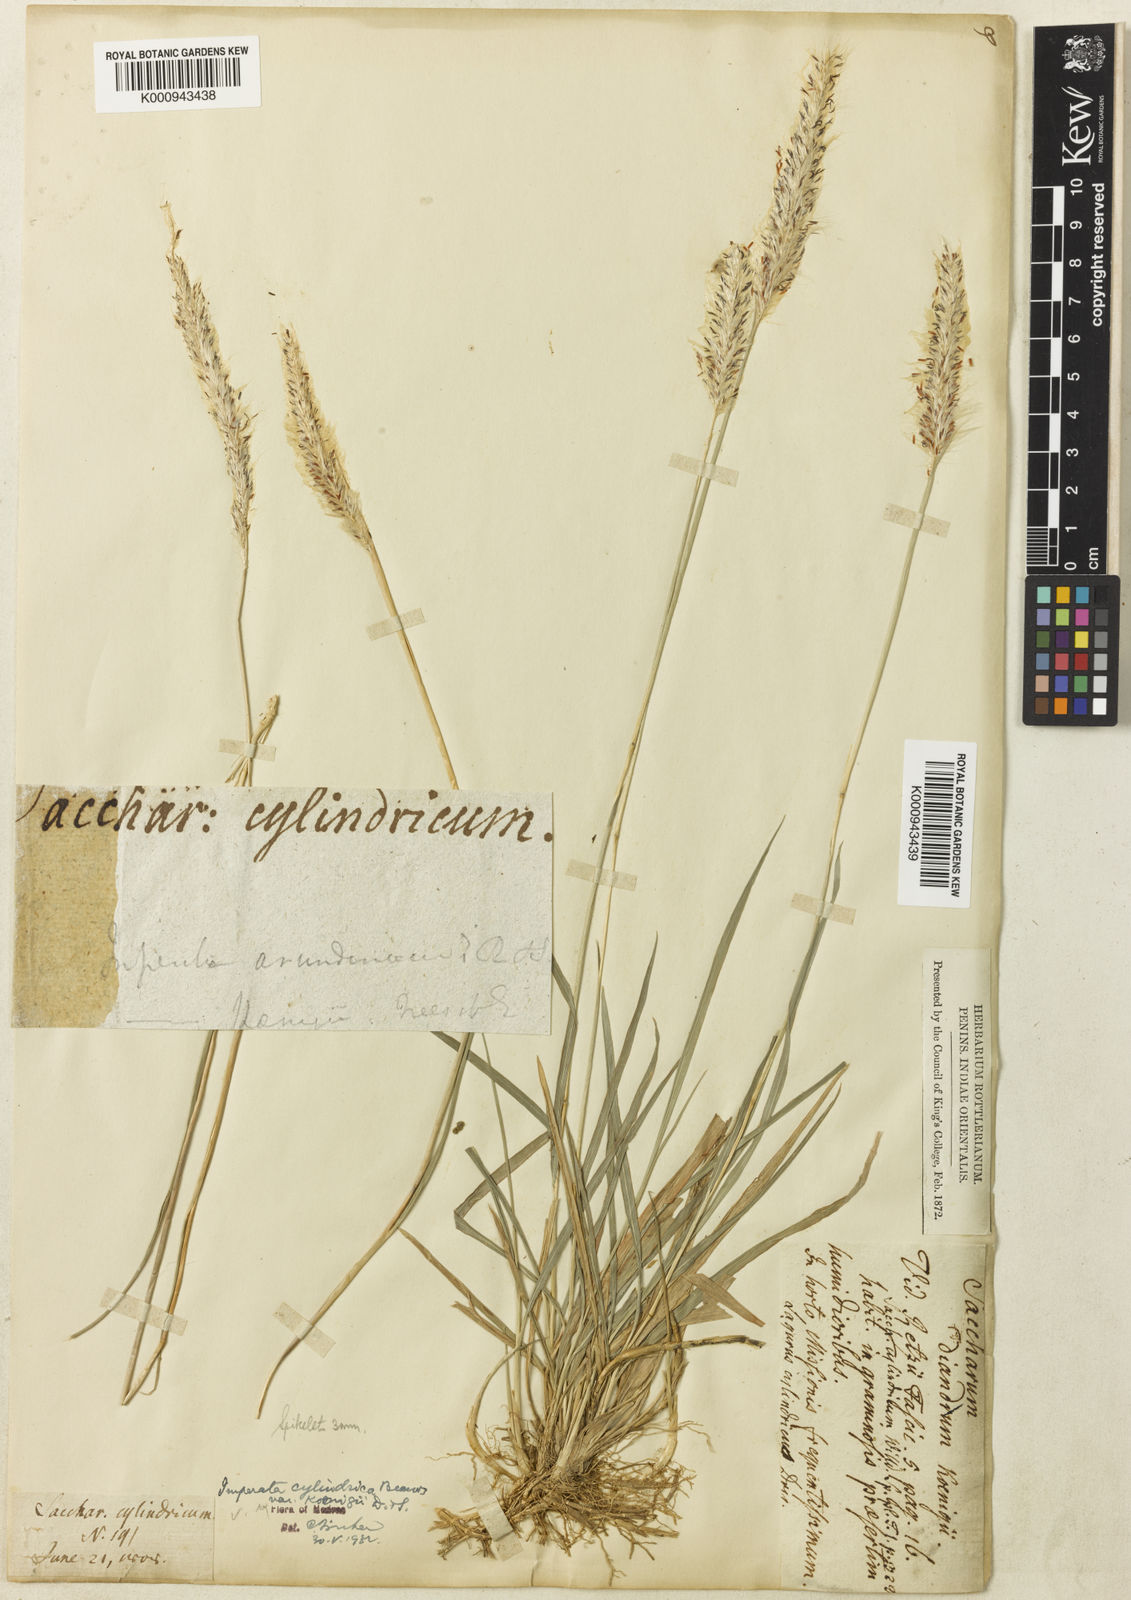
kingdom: Plantae
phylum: Tracheophyta
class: Liliopsida
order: Poales
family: Poaceae
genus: Imperata
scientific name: Imperata cylindrica
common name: Cogongrass
